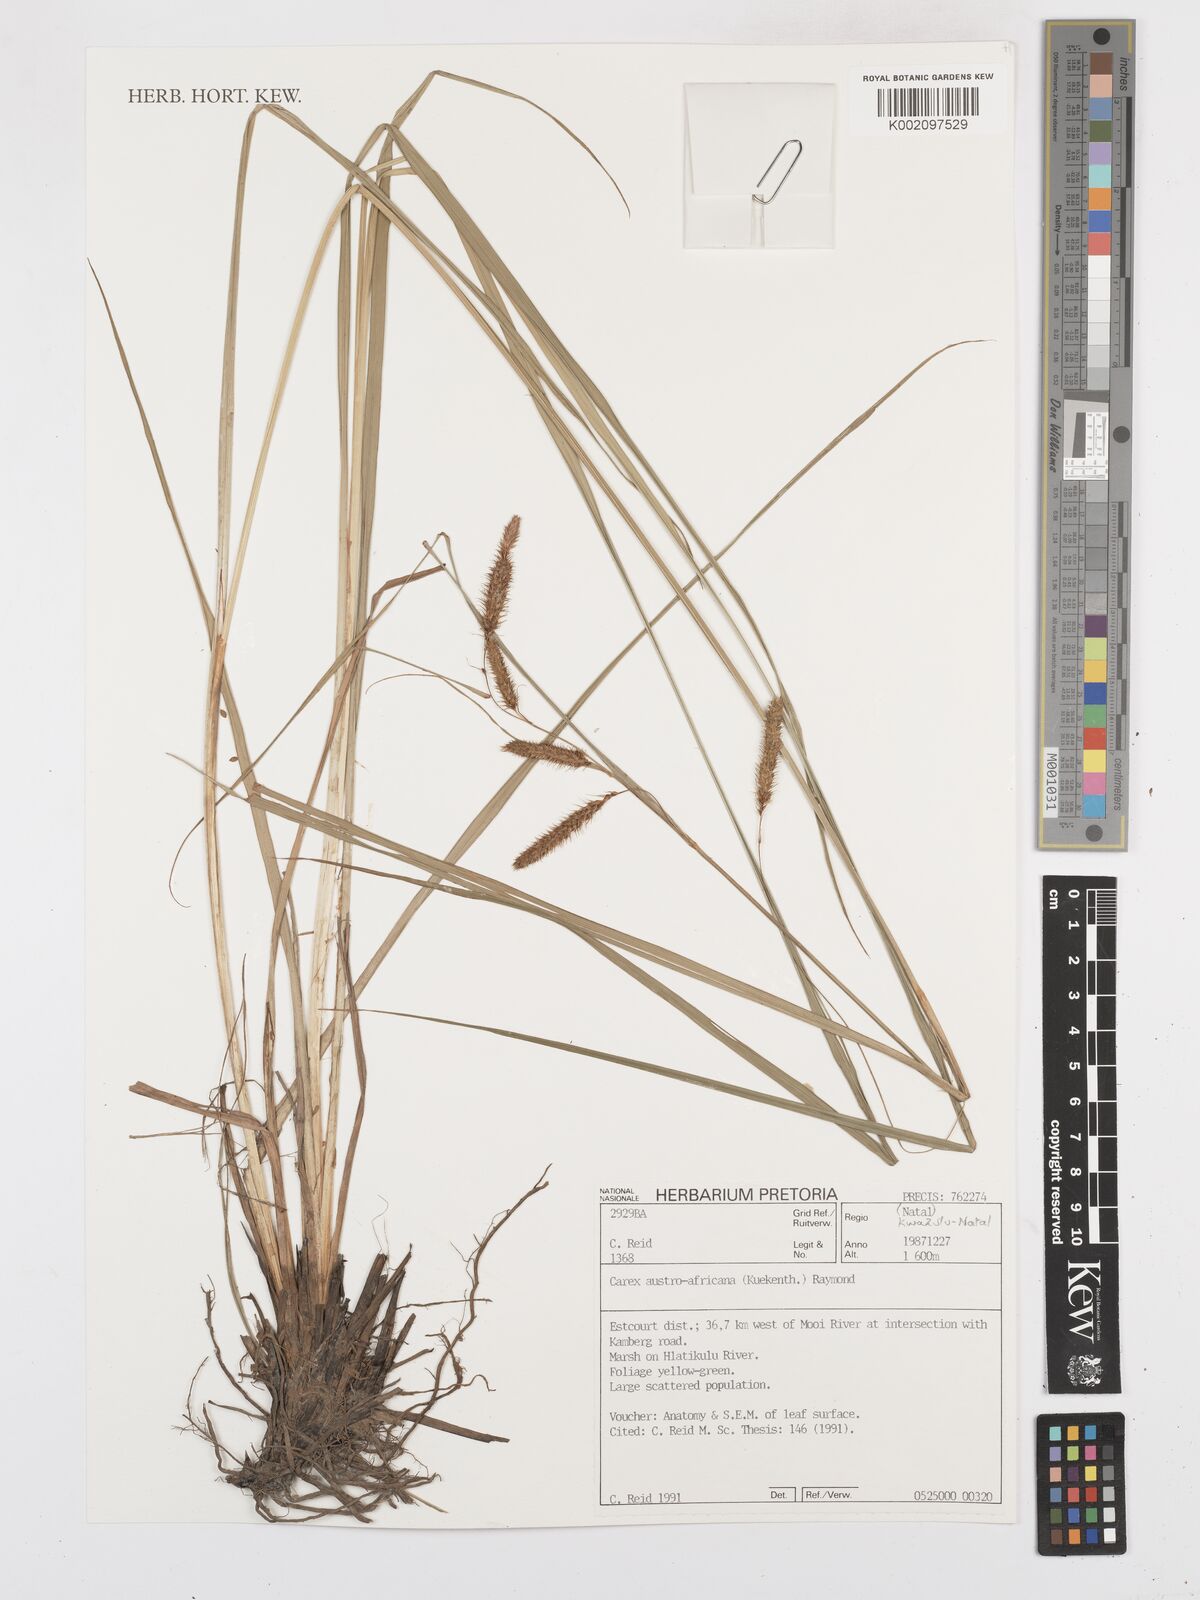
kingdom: Plantae
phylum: Tracheophyta
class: Liliopsida
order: Poales
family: Cyperaceae
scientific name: Cyperaceae
